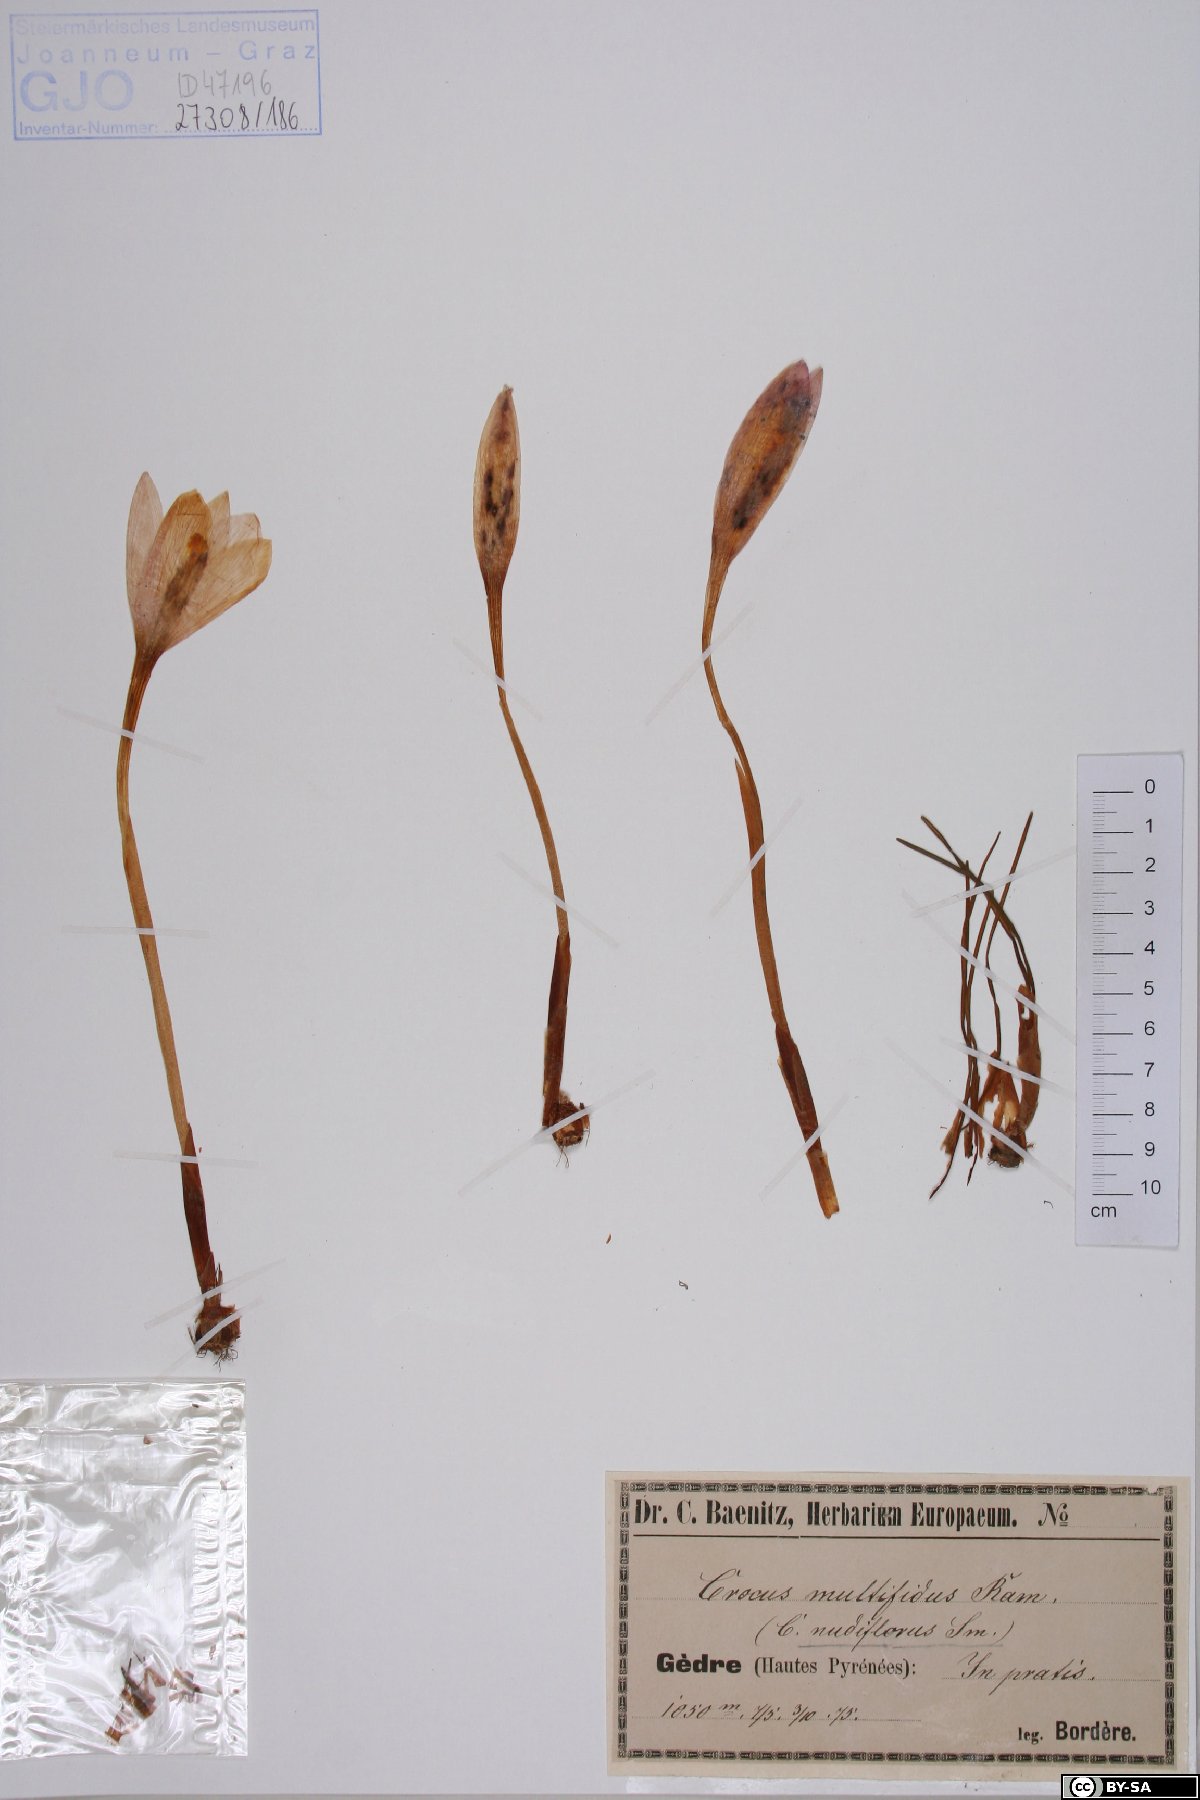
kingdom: Plantae
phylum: Tracheophyta
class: Liliopsida
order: Asparagales
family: Iridaceae
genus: Crocus
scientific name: Crocus nudiflorus
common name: Autumn crocus
